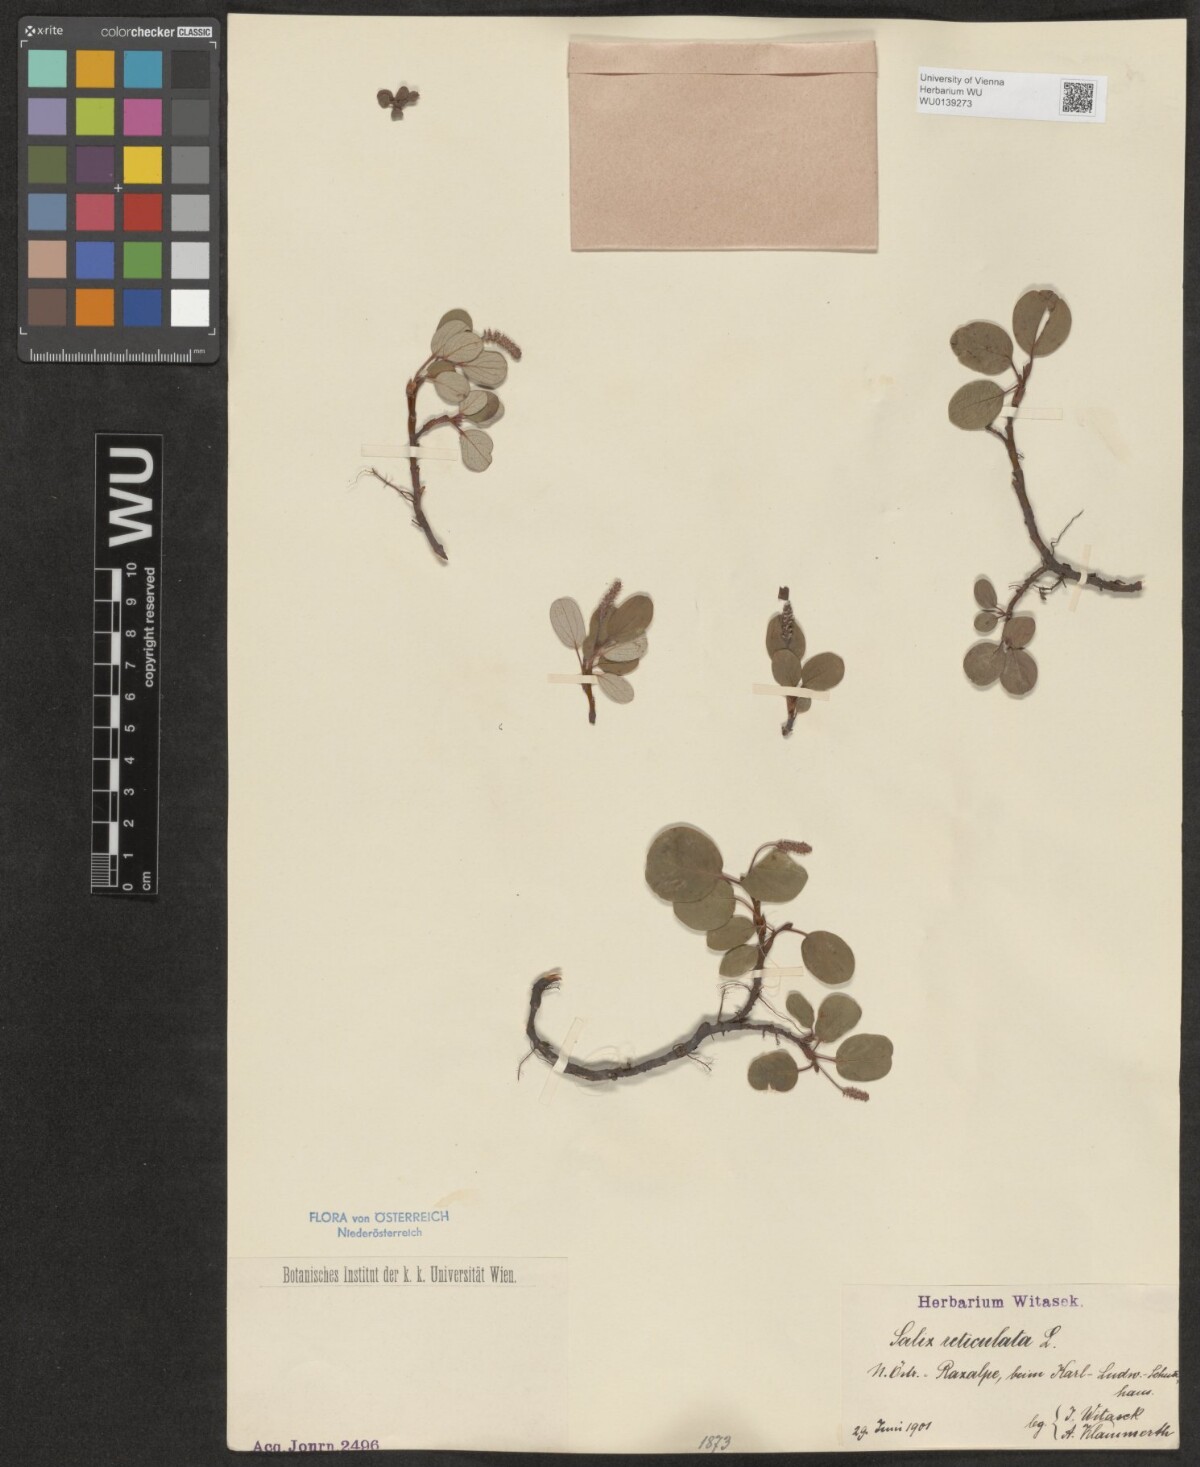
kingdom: Plantae
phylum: Tracheophyta
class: Magnoliopsida
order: Malpighiales
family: Salicaceae
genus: Salix
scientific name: Salix reticulata
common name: Net-leaved willow
